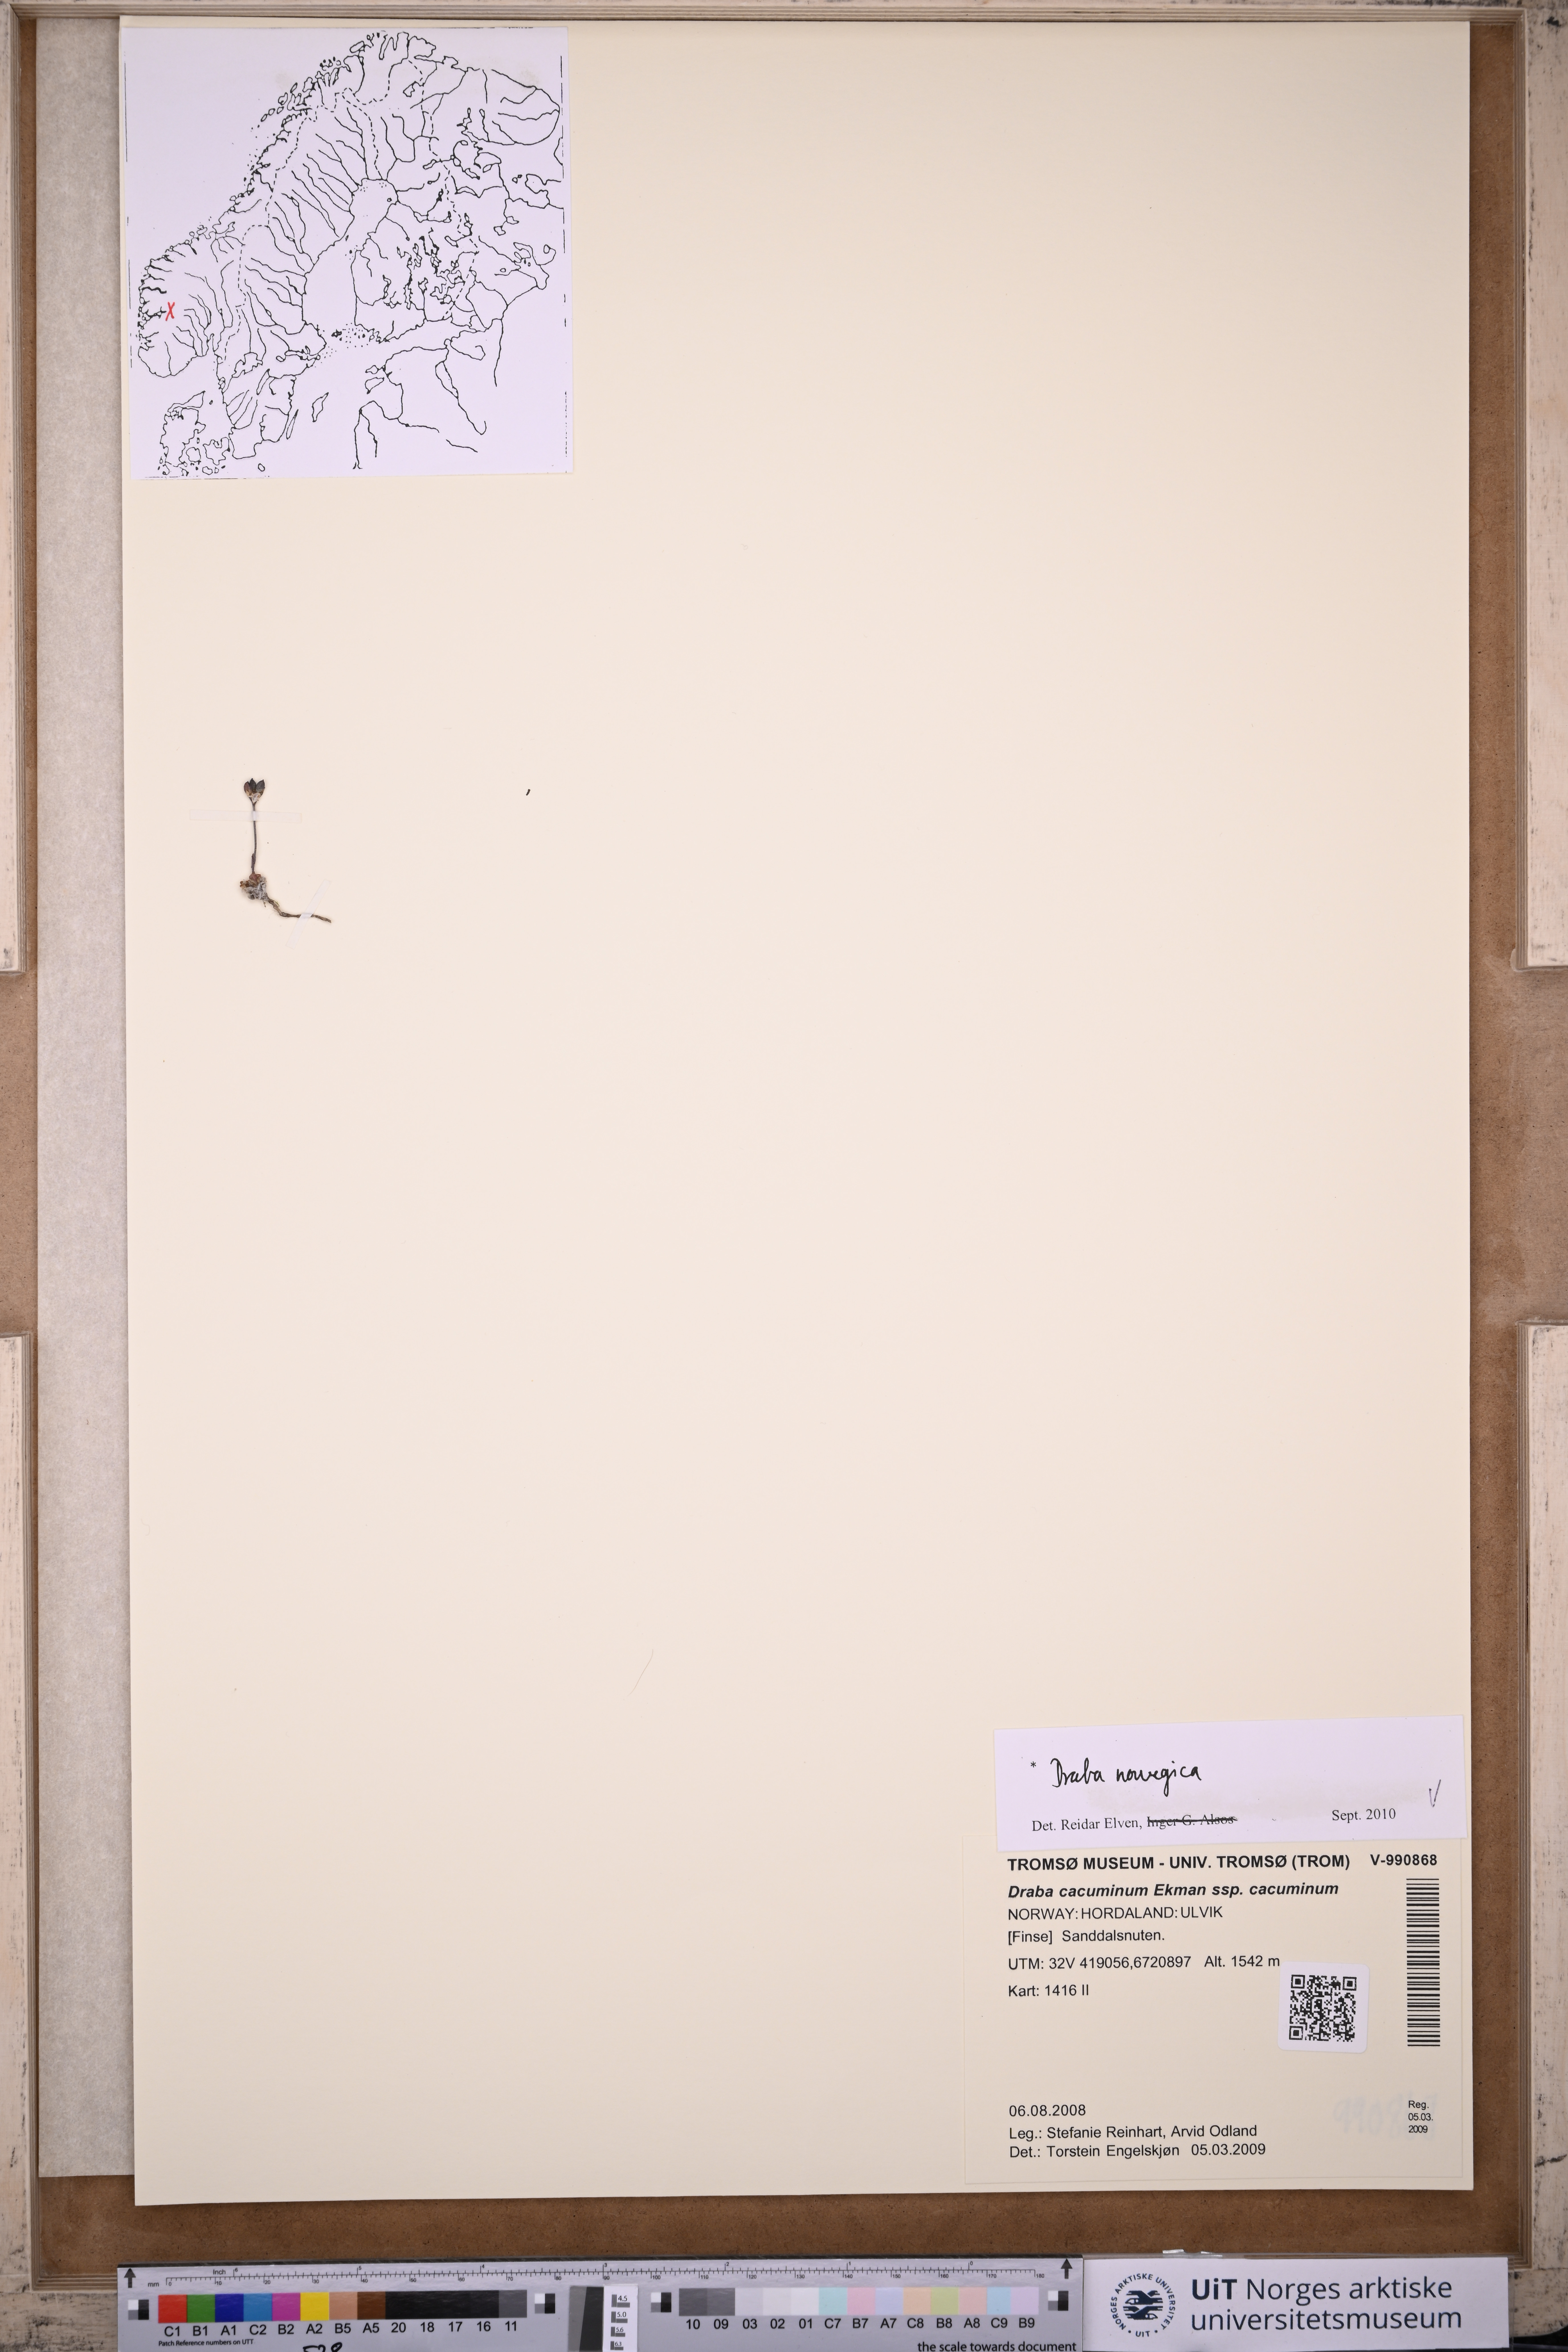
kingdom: Plantae
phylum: Tracheophyta
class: Magnoliopsida
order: Brassicales
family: Brassicaceae
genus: Draba
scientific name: Draba norvegica
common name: Rock whitlowgrass
